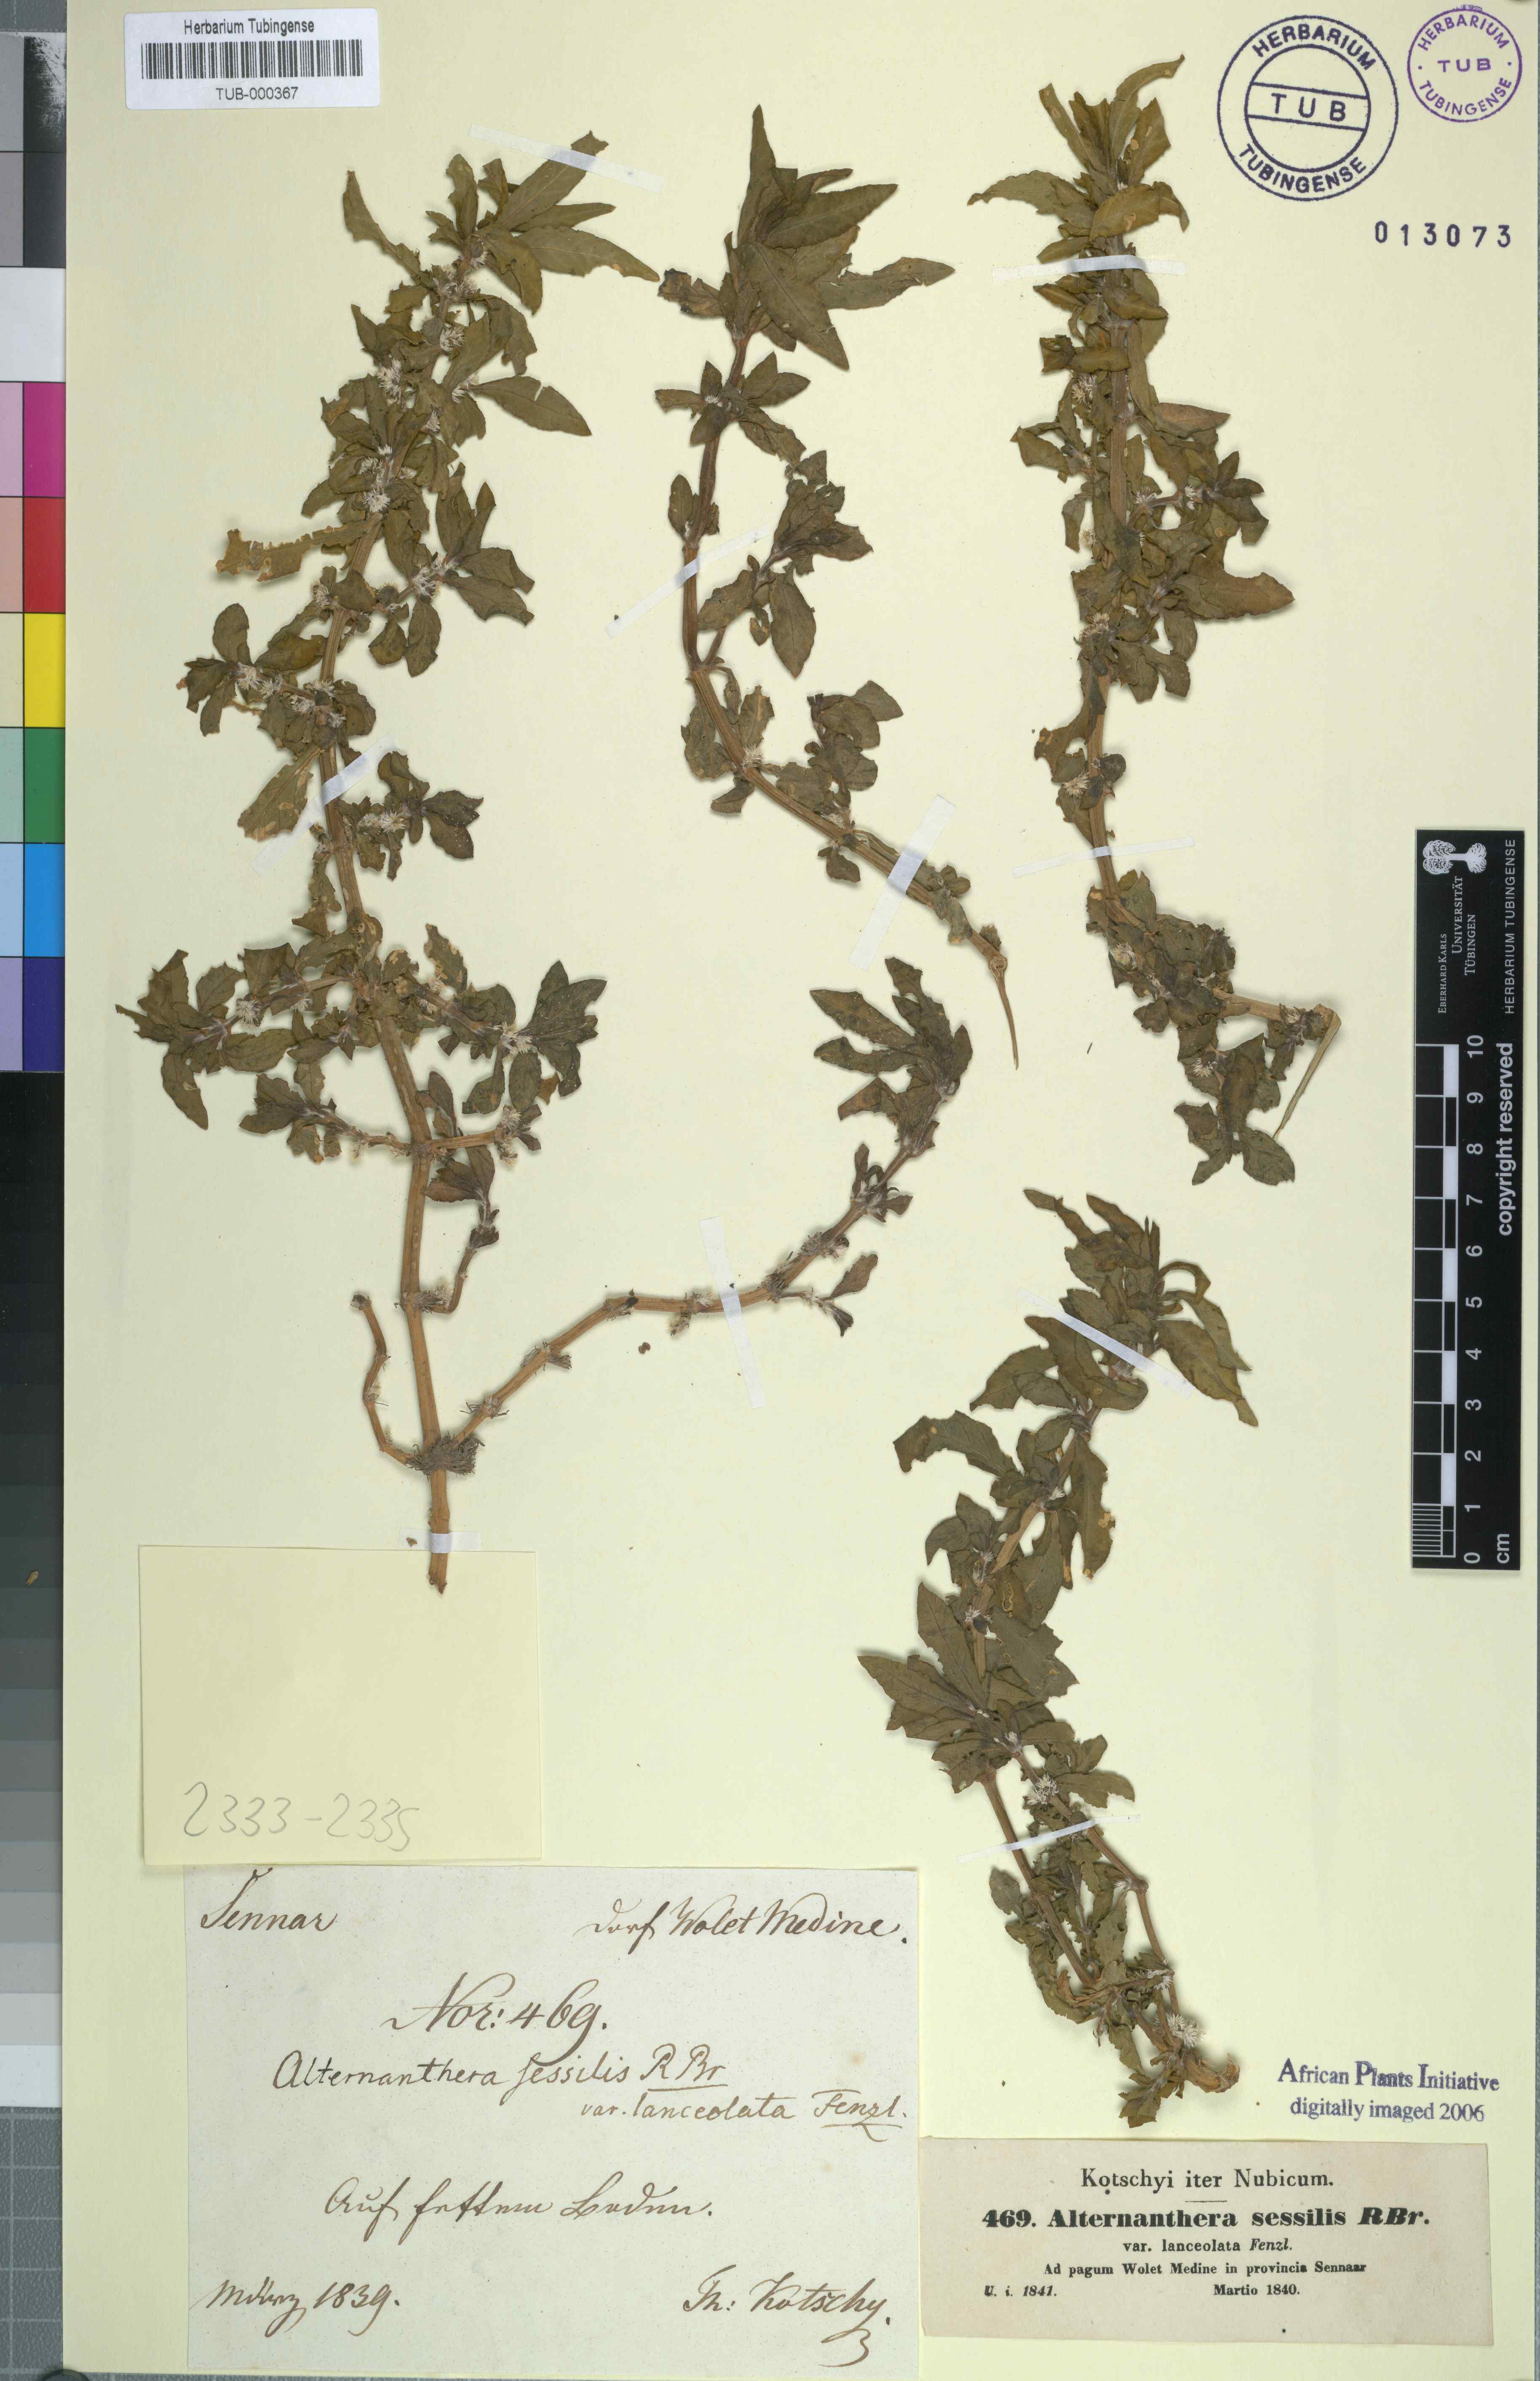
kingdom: Plantae
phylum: Tracheophyta
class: Magnoliopsida
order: Caryophyllales
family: Amaranthaceae
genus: Alternanthera
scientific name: Alternanthera sessilis
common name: Sessile joyweed
